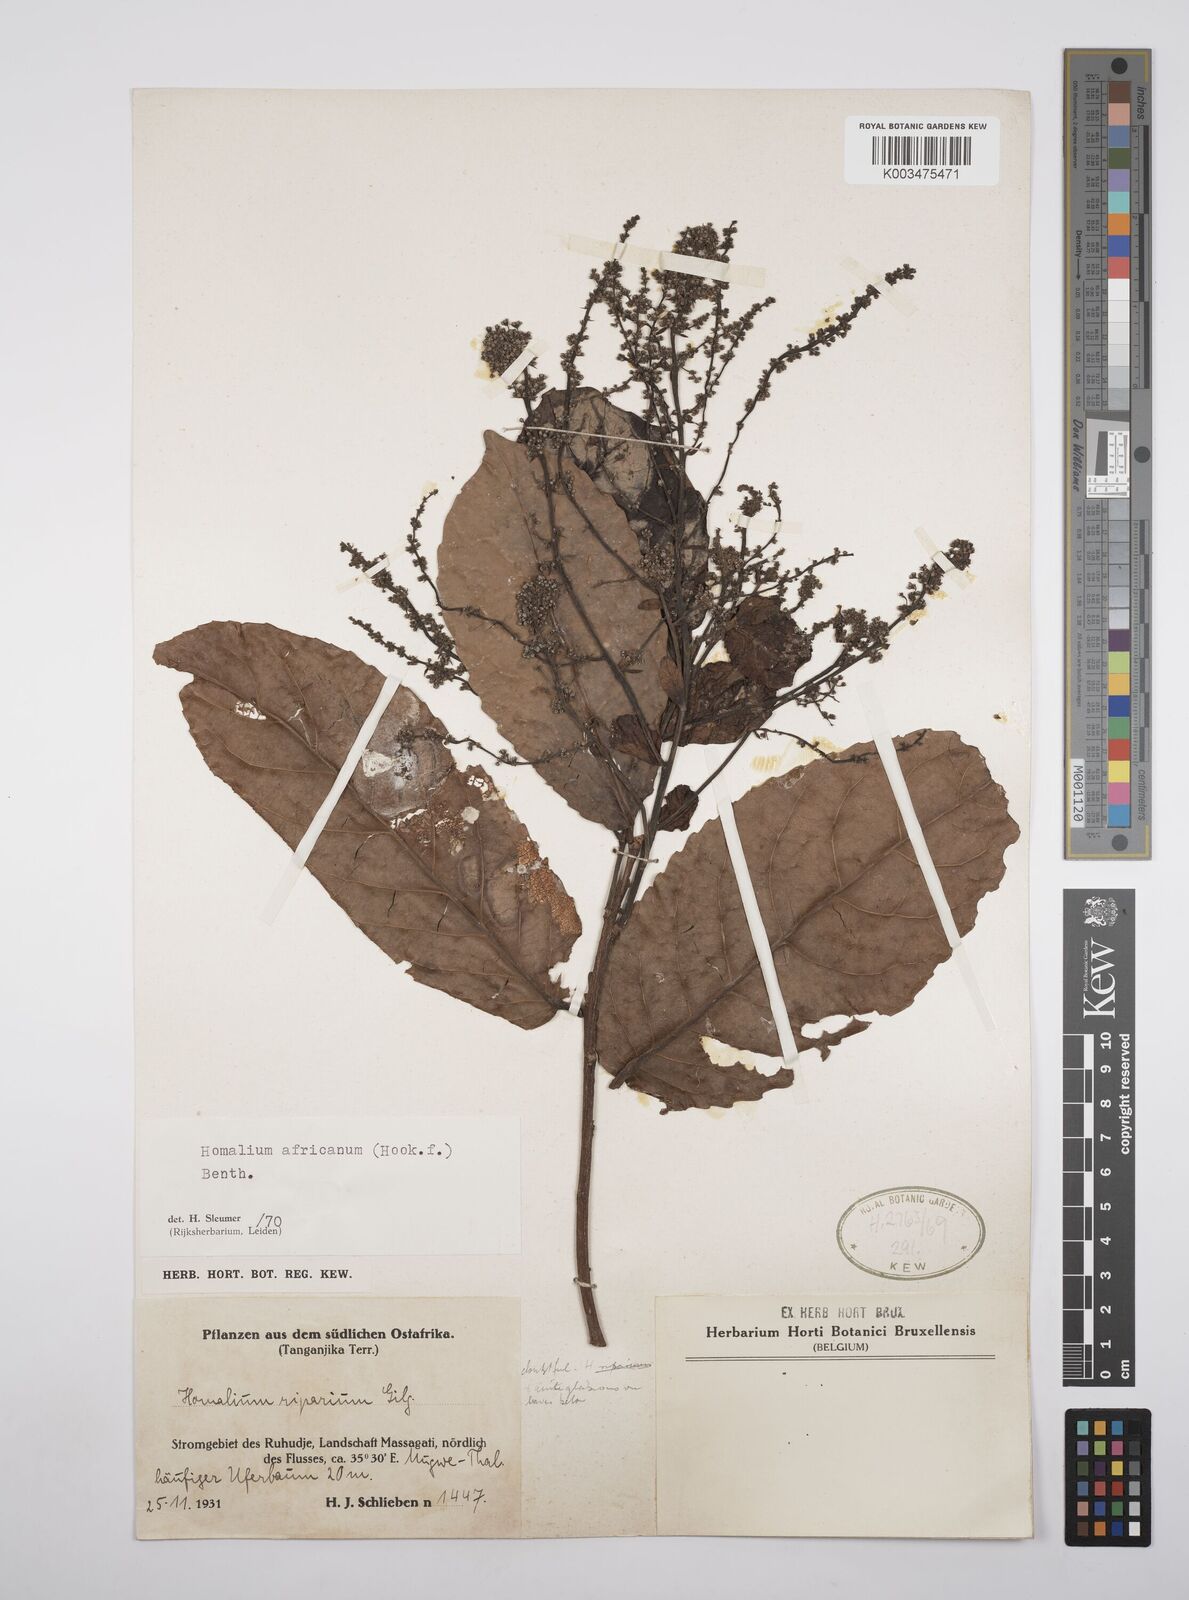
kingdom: Plantae
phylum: Tracheophyta
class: Magnoliopsida
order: Malpighiales
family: Salicaceae
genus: Homalium
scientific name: Homalium africanum
